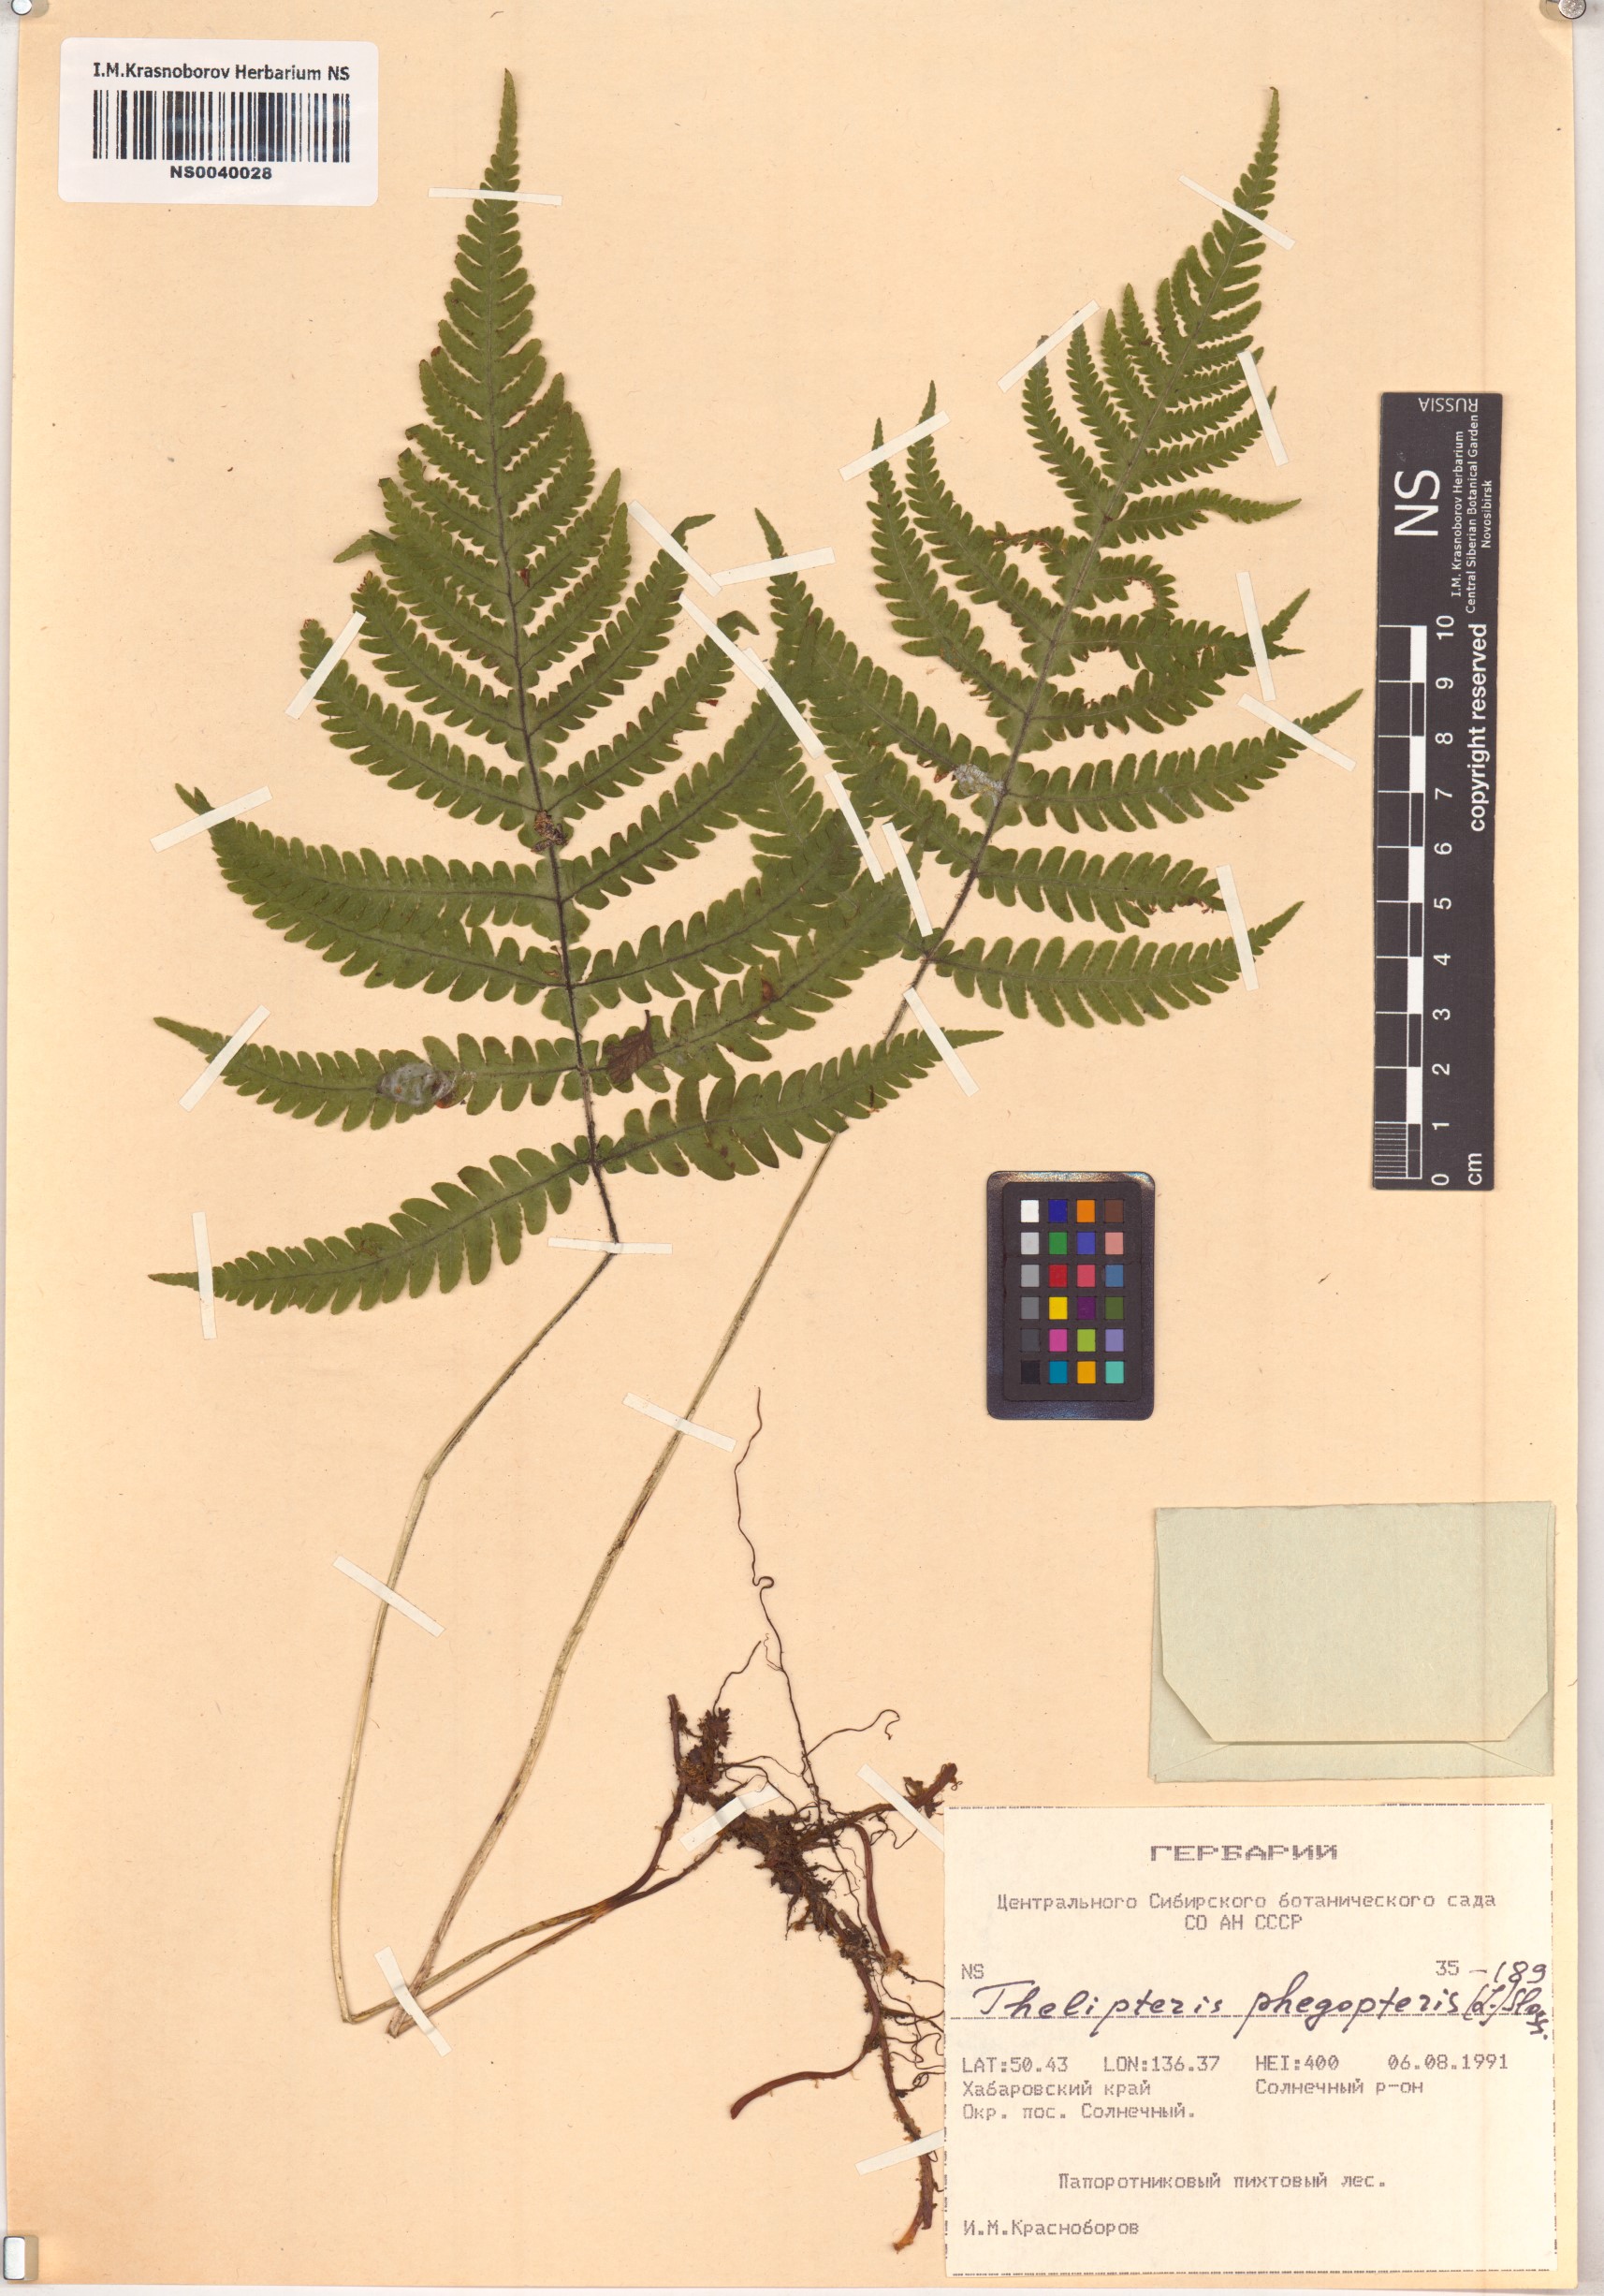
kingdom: Plantae
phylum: Tracheophyta
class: Polypodiopsida
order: Polypodiales
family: Thelypteridaceae
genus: Phegopteris
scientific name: Phegopteris connectilis
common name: Beech fern
